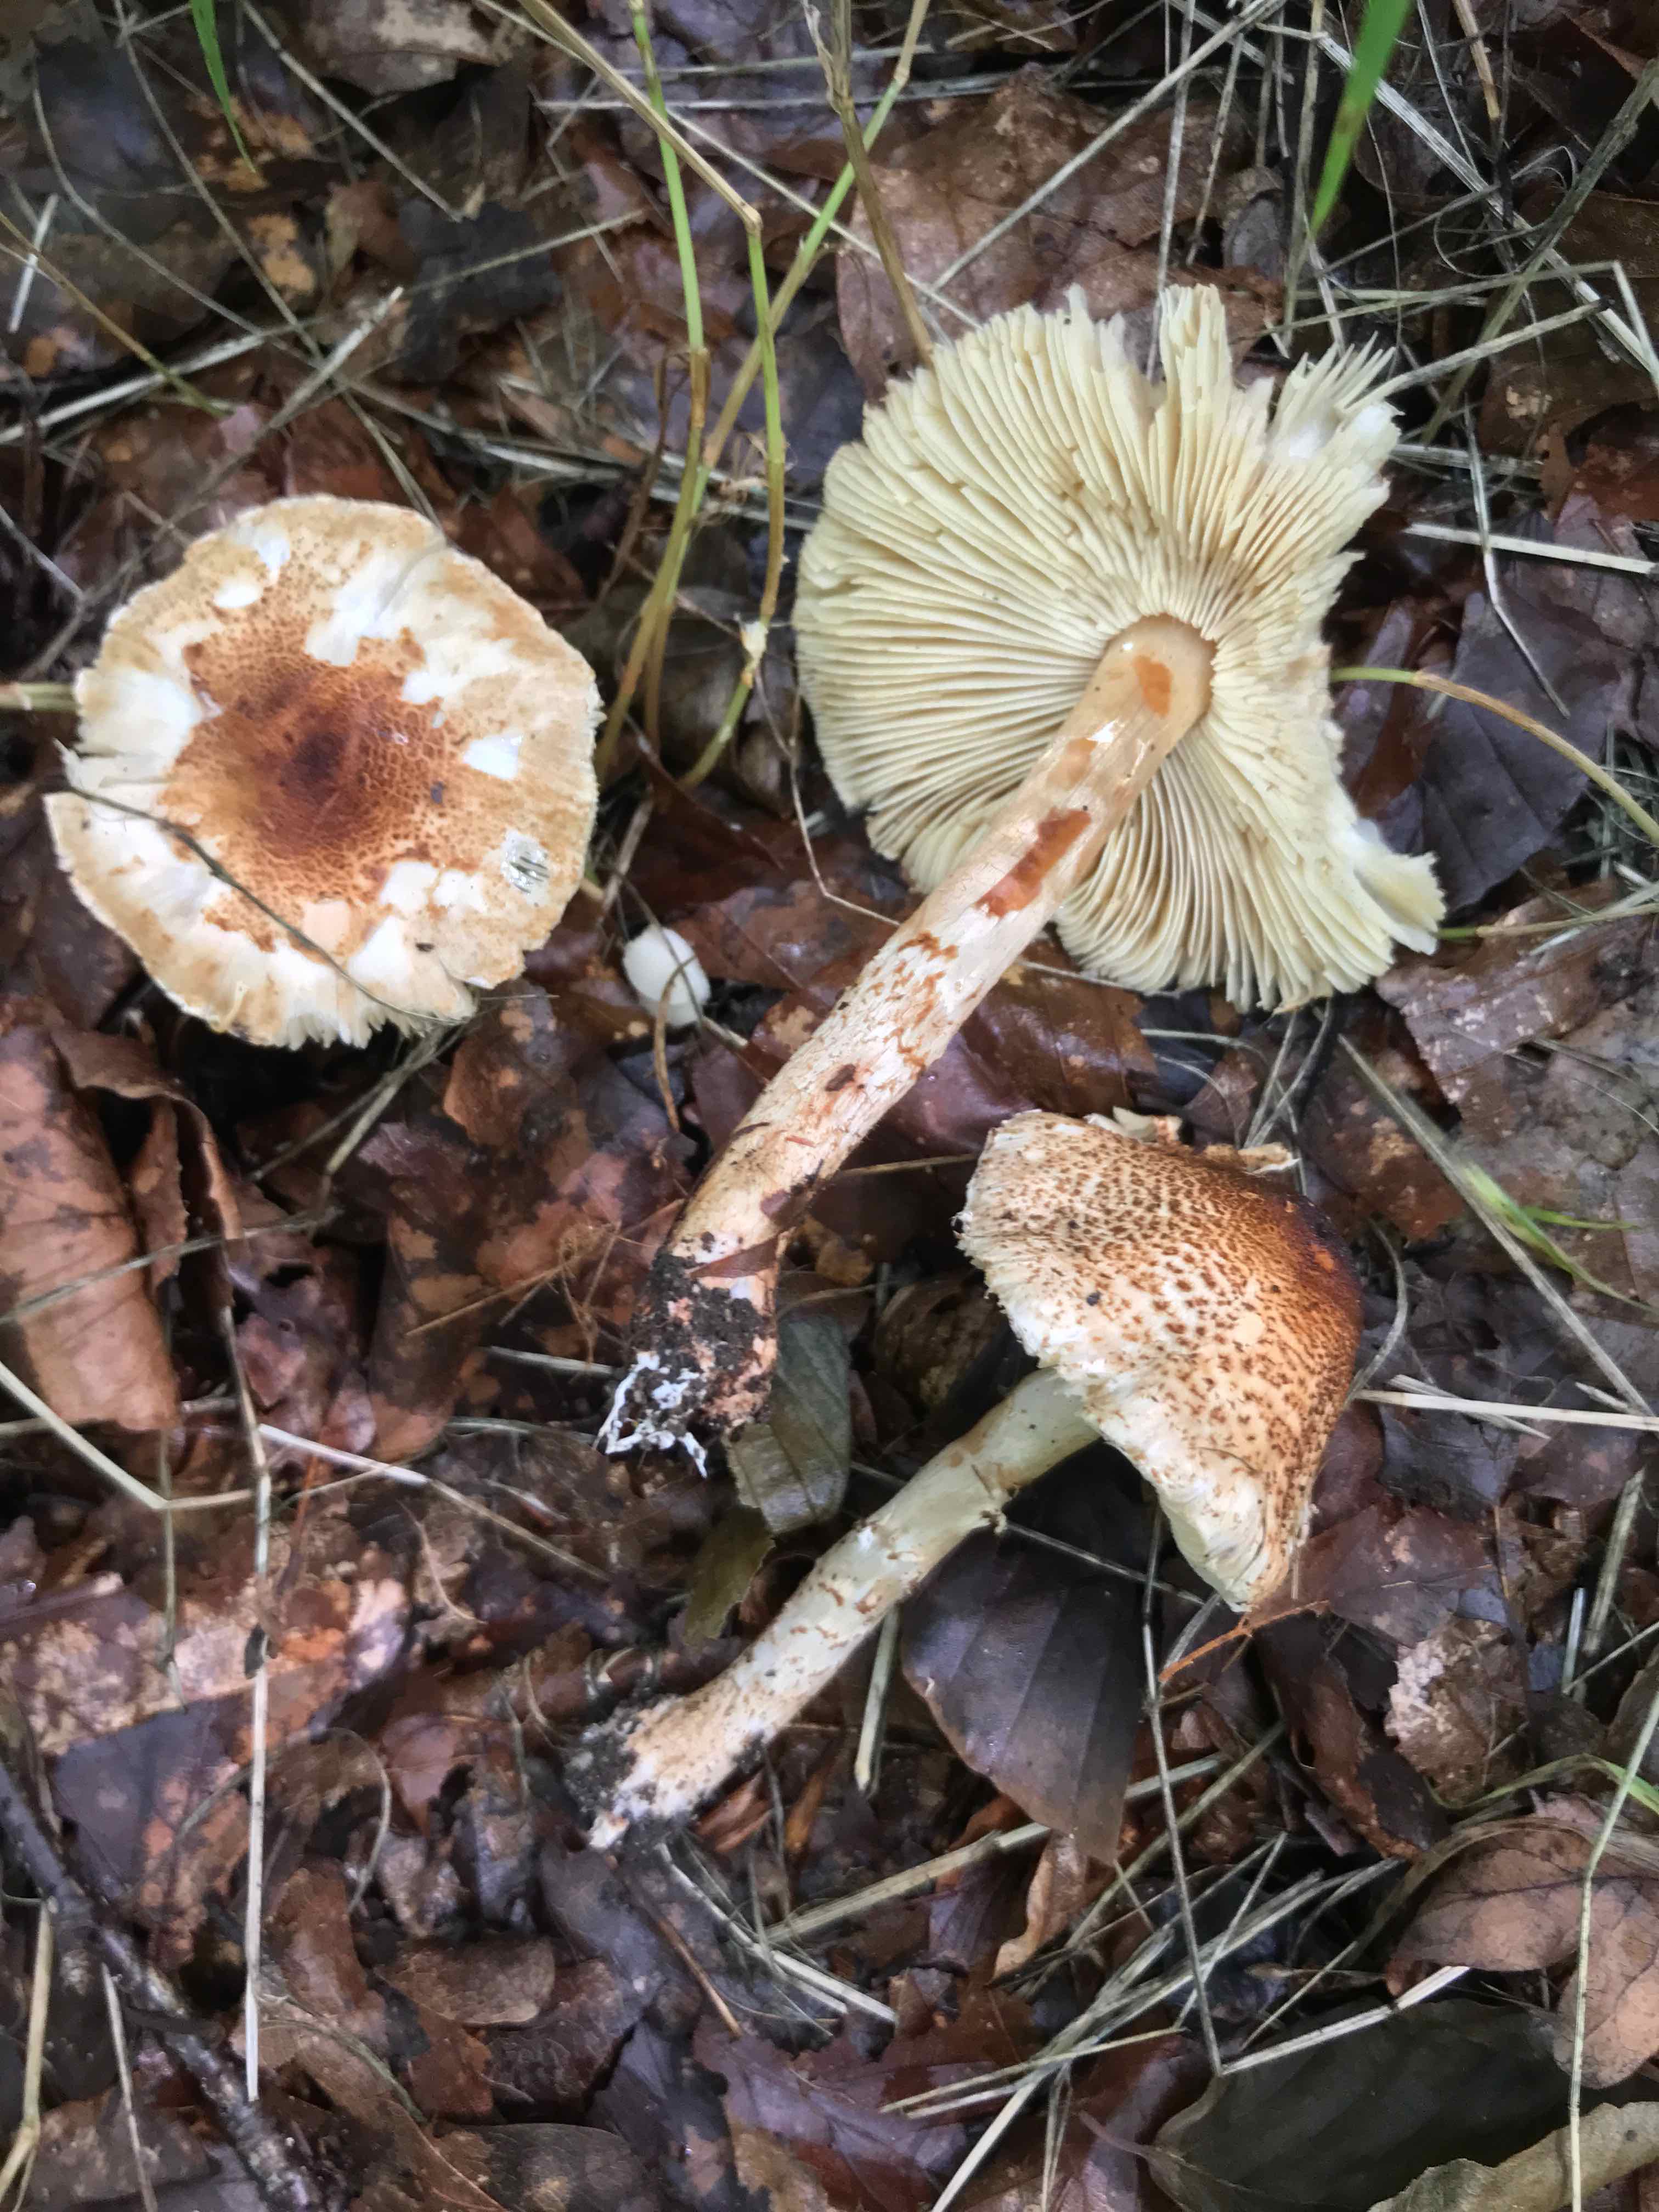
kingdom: Fungi
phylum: Basidiomycota
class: Agaricomycetes
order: Agaricales
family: Agaricaceae
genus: Lepiota
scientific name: Lepiota
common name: parasolhat
